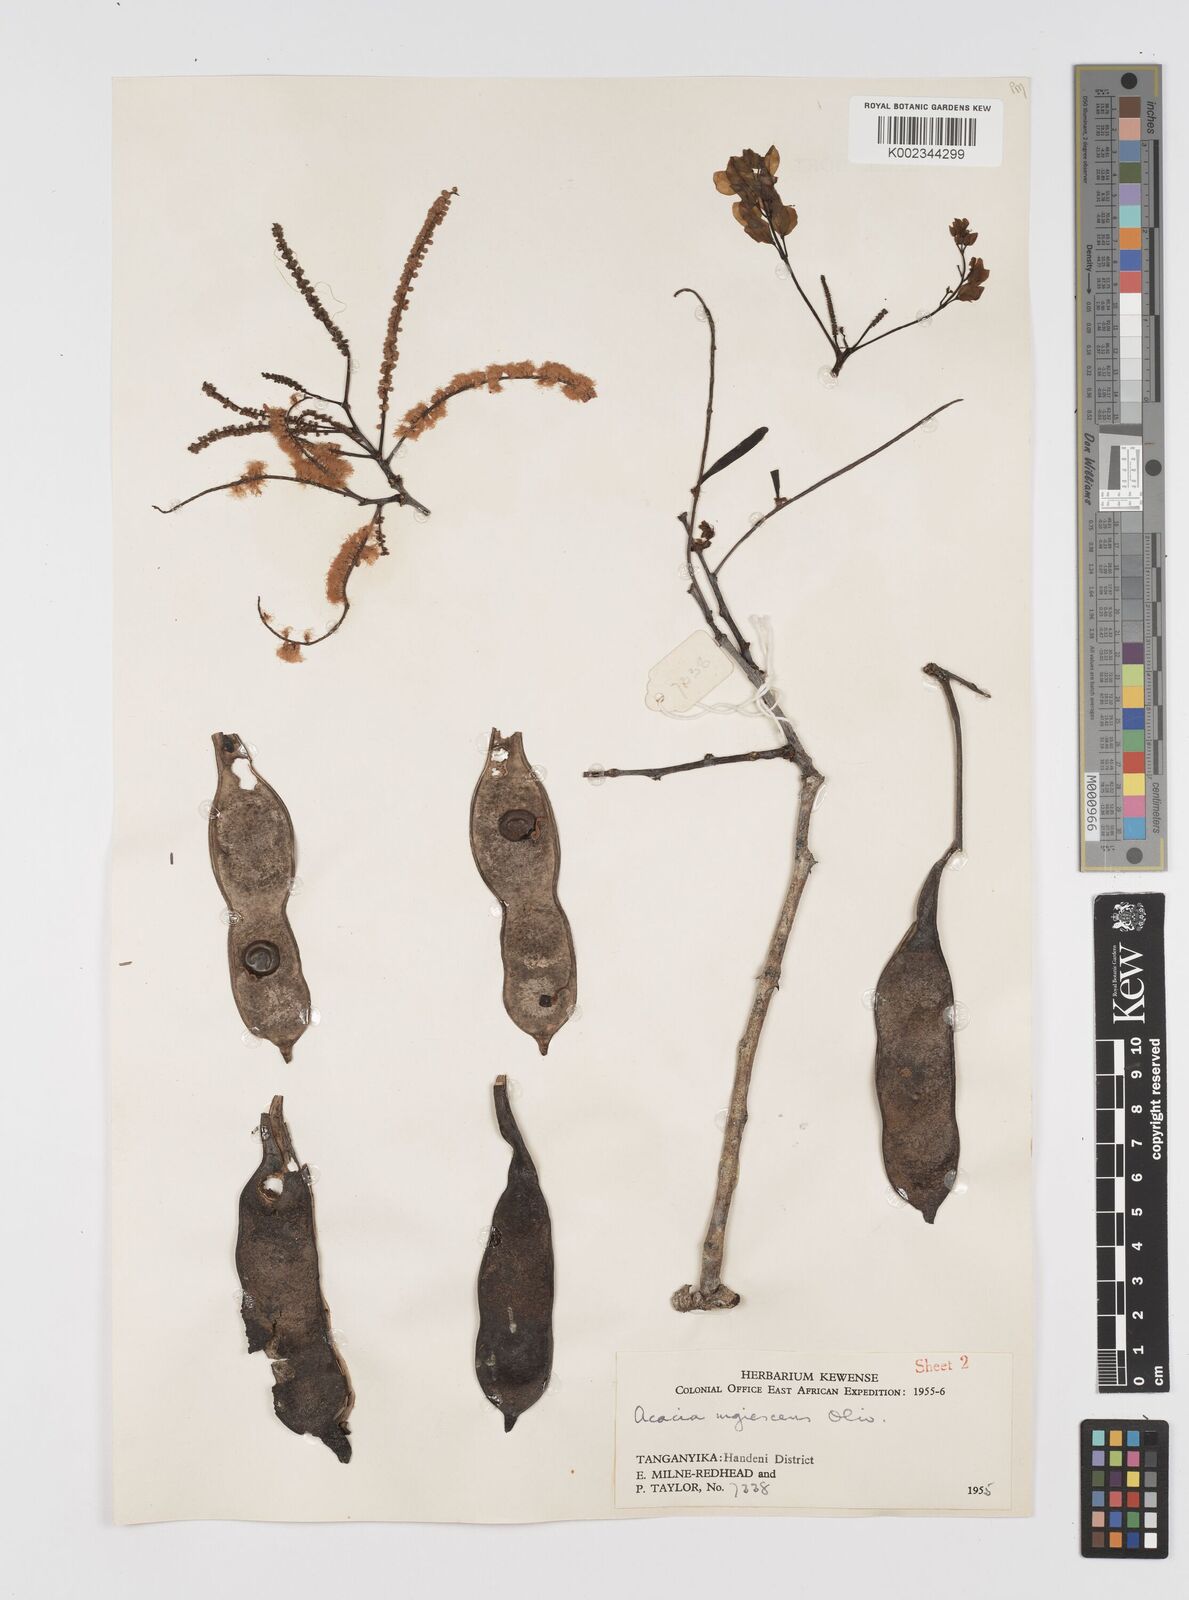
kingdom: Plantae
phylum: Tracheophyta
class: Magnoliopsida
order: Fabales
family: Fabaceae
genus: Senegalia
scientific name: Senegalia nigrescens
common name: Knobthorn
